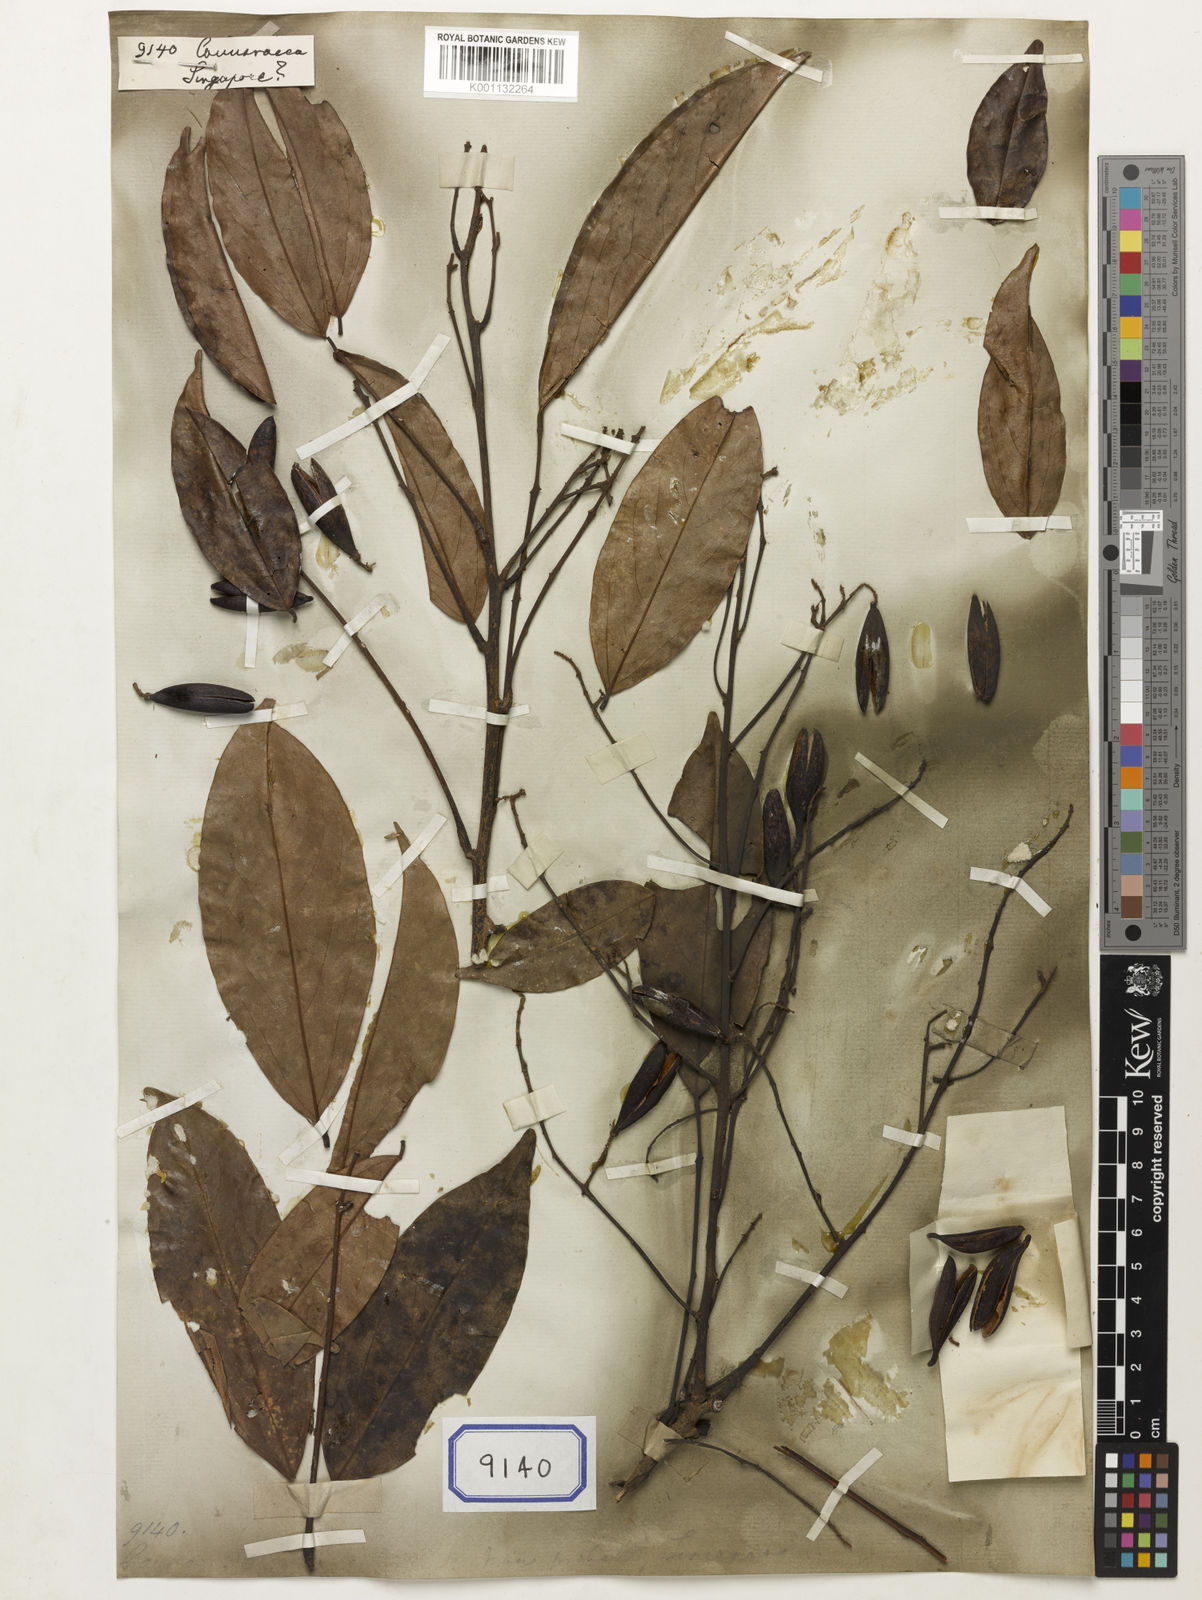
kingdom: Plantae
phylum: Tracheophyta
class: Magnoliopsida
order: Oxalidales
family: Connaraceae
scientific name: Connaraceae
